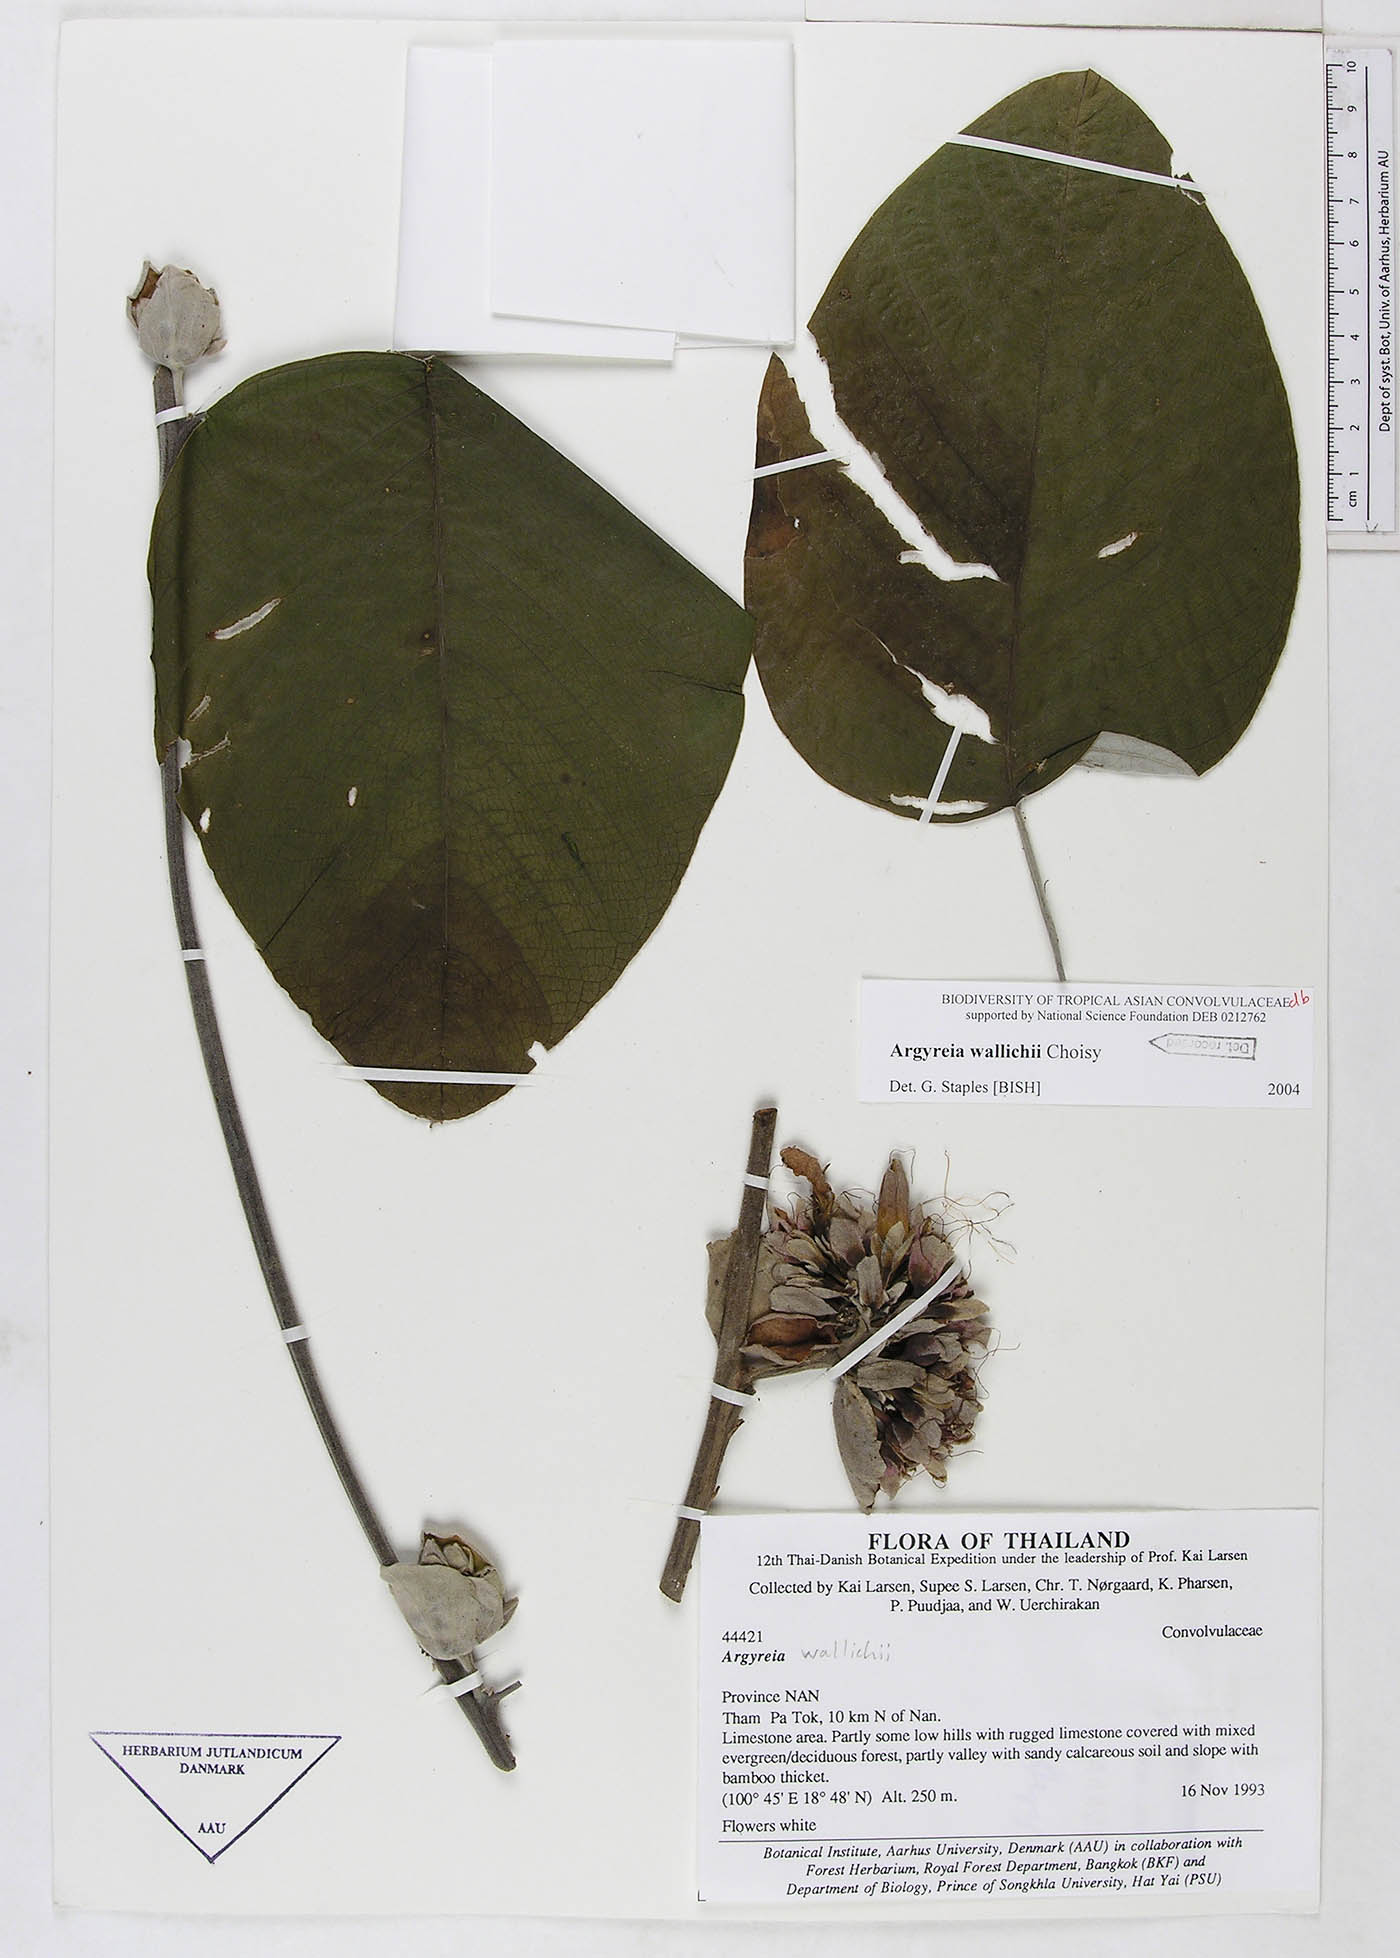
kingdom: Plantae
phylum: Tracheophyta
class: Magnoliopsida
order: Solanales
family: Convolvulaceae
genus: Argyreia
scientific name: Argyreia wallichii
